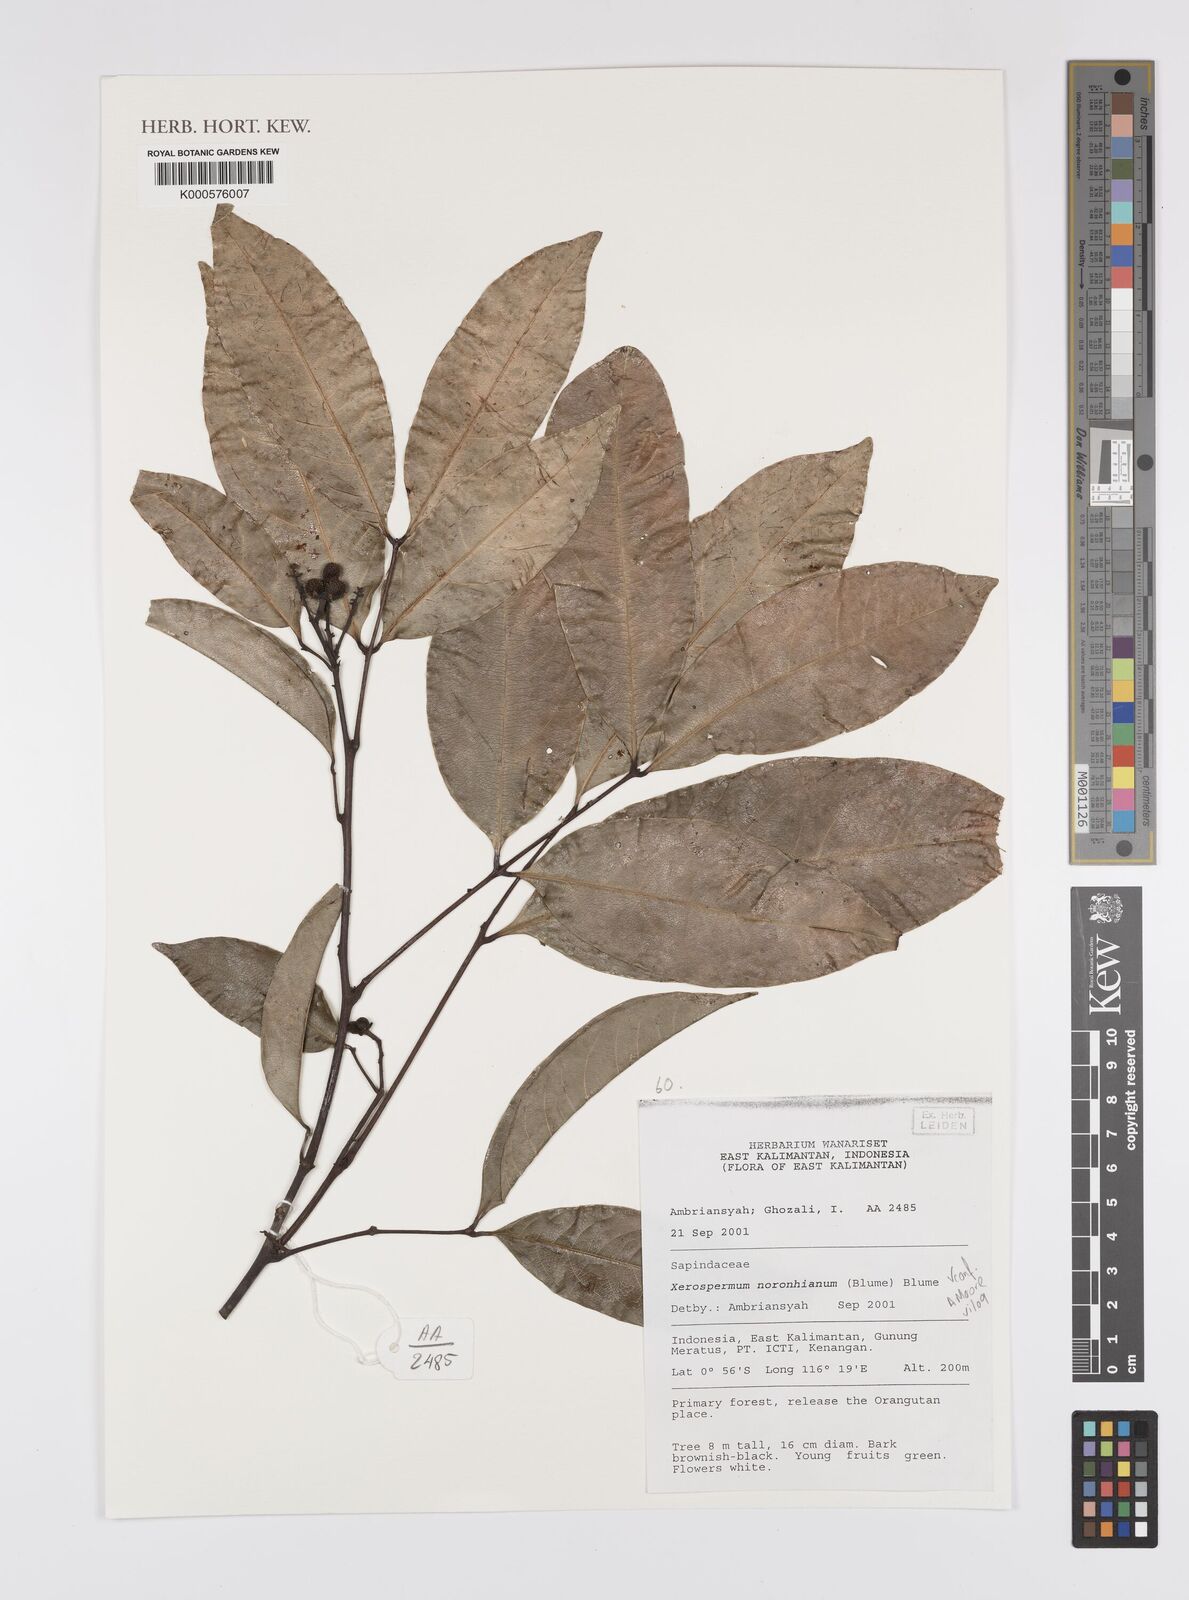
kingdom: Plantae
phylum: Tracheophyta
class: Magnoliopsida
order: Sapindales
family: Sapindaceae
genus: Xerospermum
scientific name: Xerospermum noronhianum
